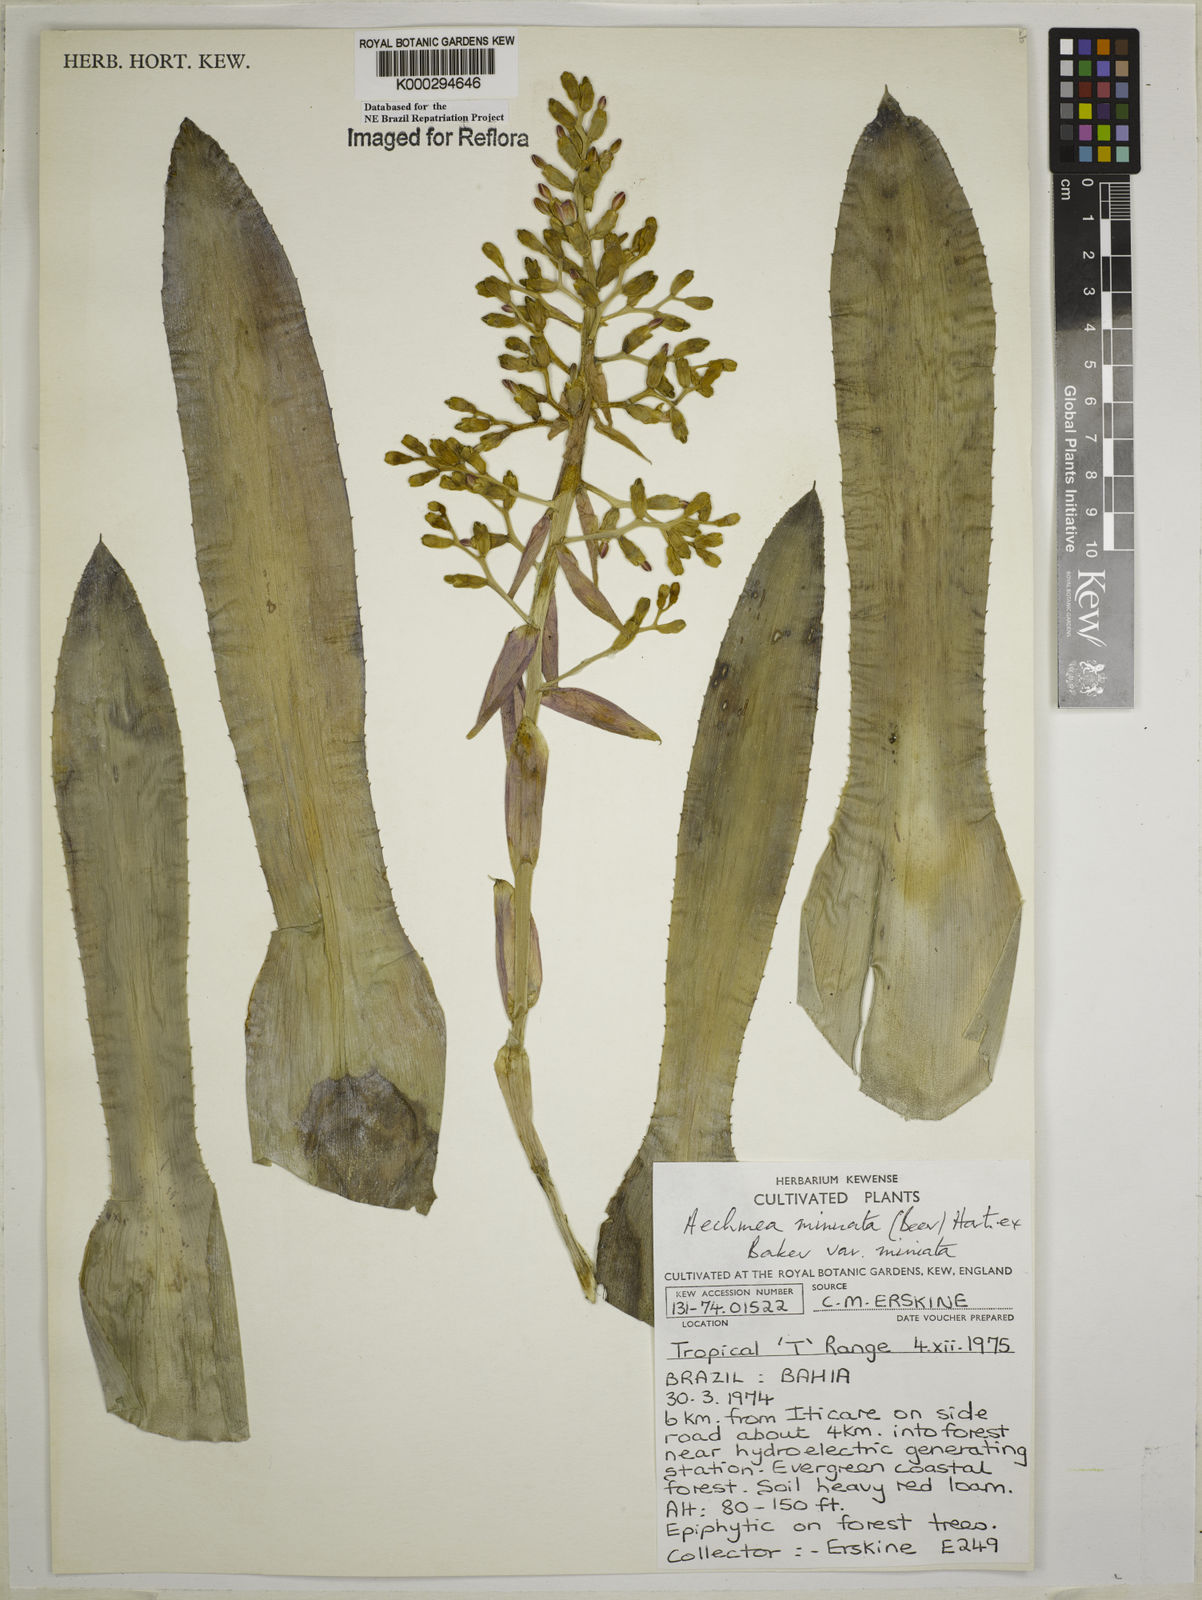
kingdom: Plantae
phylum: Tracheophyta
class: Liliopsida
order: Poales
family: Bromeliaceae
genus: Aechmea
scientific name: Aechmea miniata
